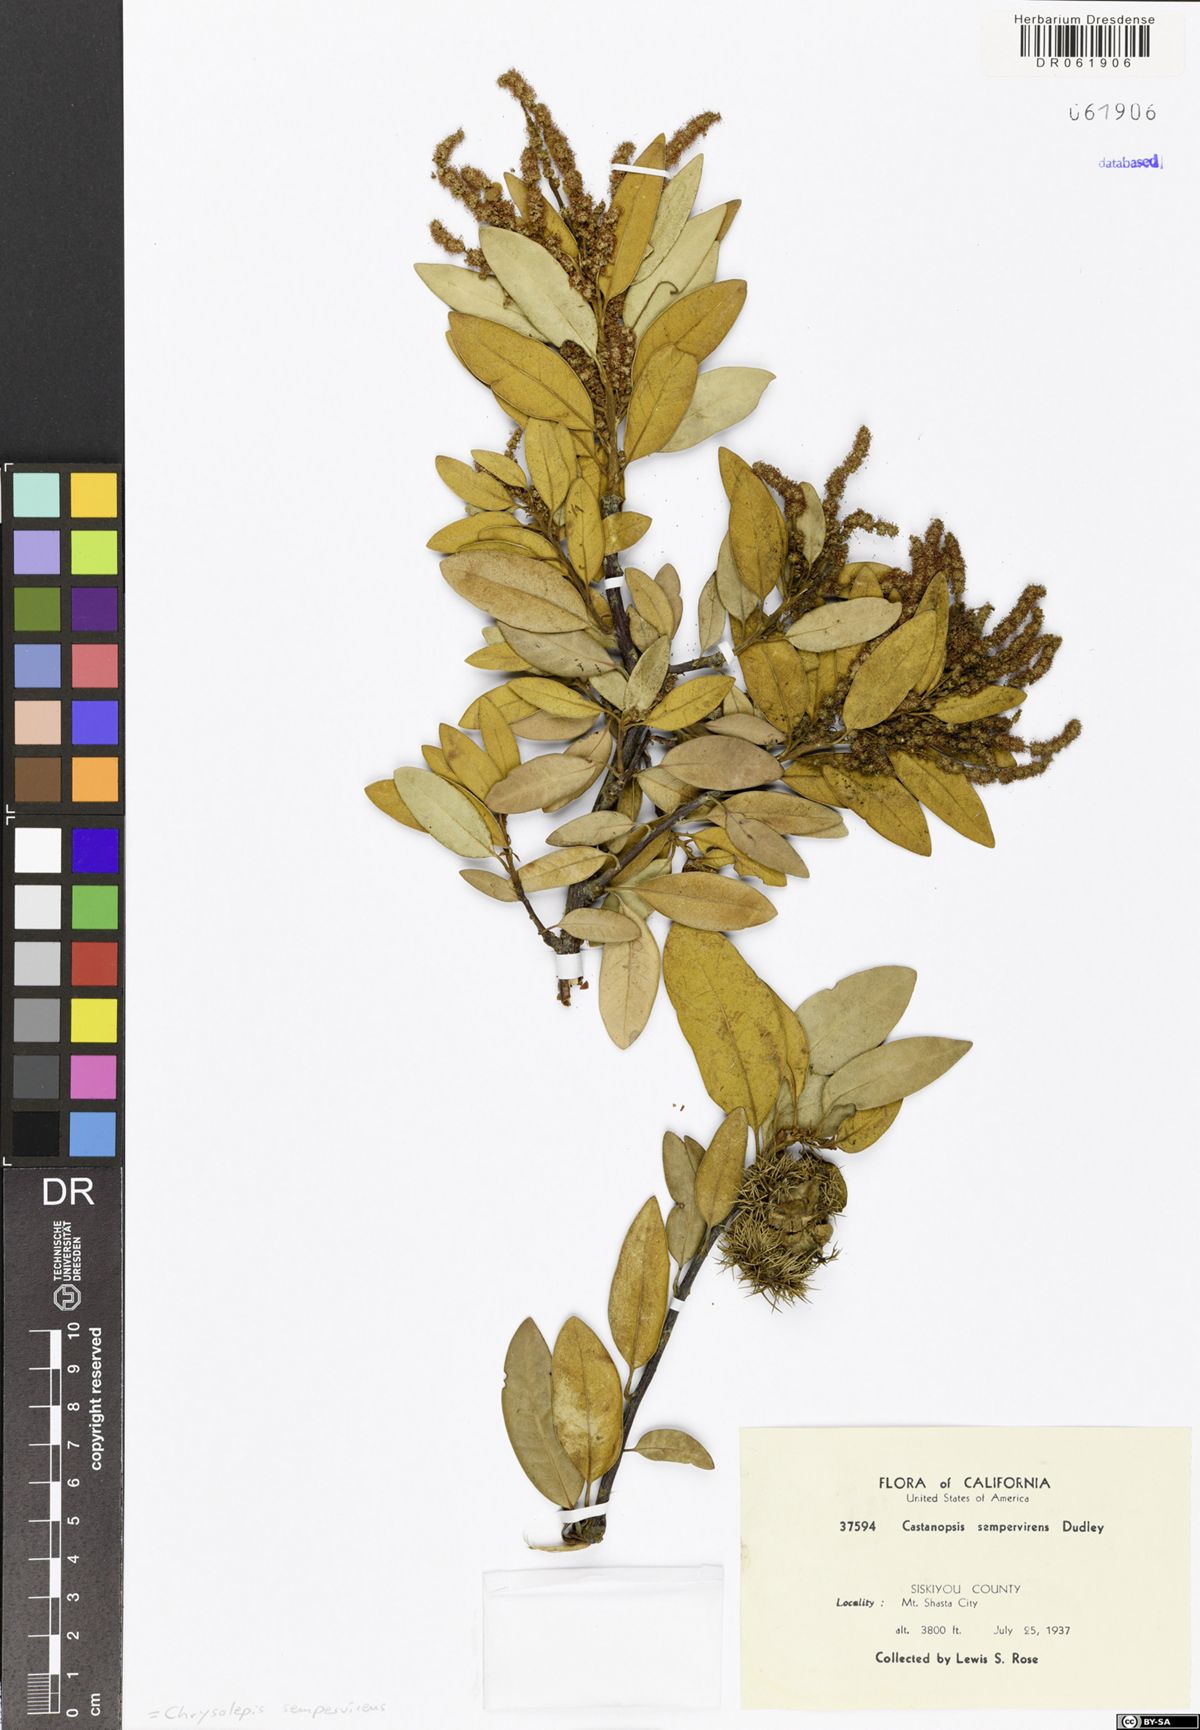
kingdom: Plantae
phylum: Tracheophyta
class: Magnoliopsida
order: Fagales
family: Fagaceae
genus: Chrysolepis
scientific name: Chrysolepis sempervirens
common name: Bush chinquapin
